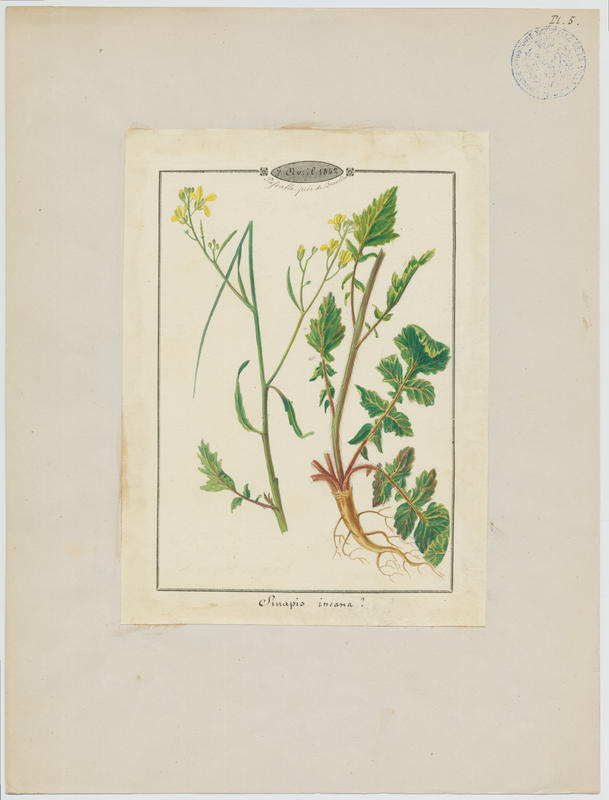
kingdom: Plantae
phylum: Tracheophyta
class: Magnoliopsida
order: Brassicales
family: Brassicaceae
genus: Hirschfeldia
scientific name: Hirschfeldia incana
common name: Hoary mustard
